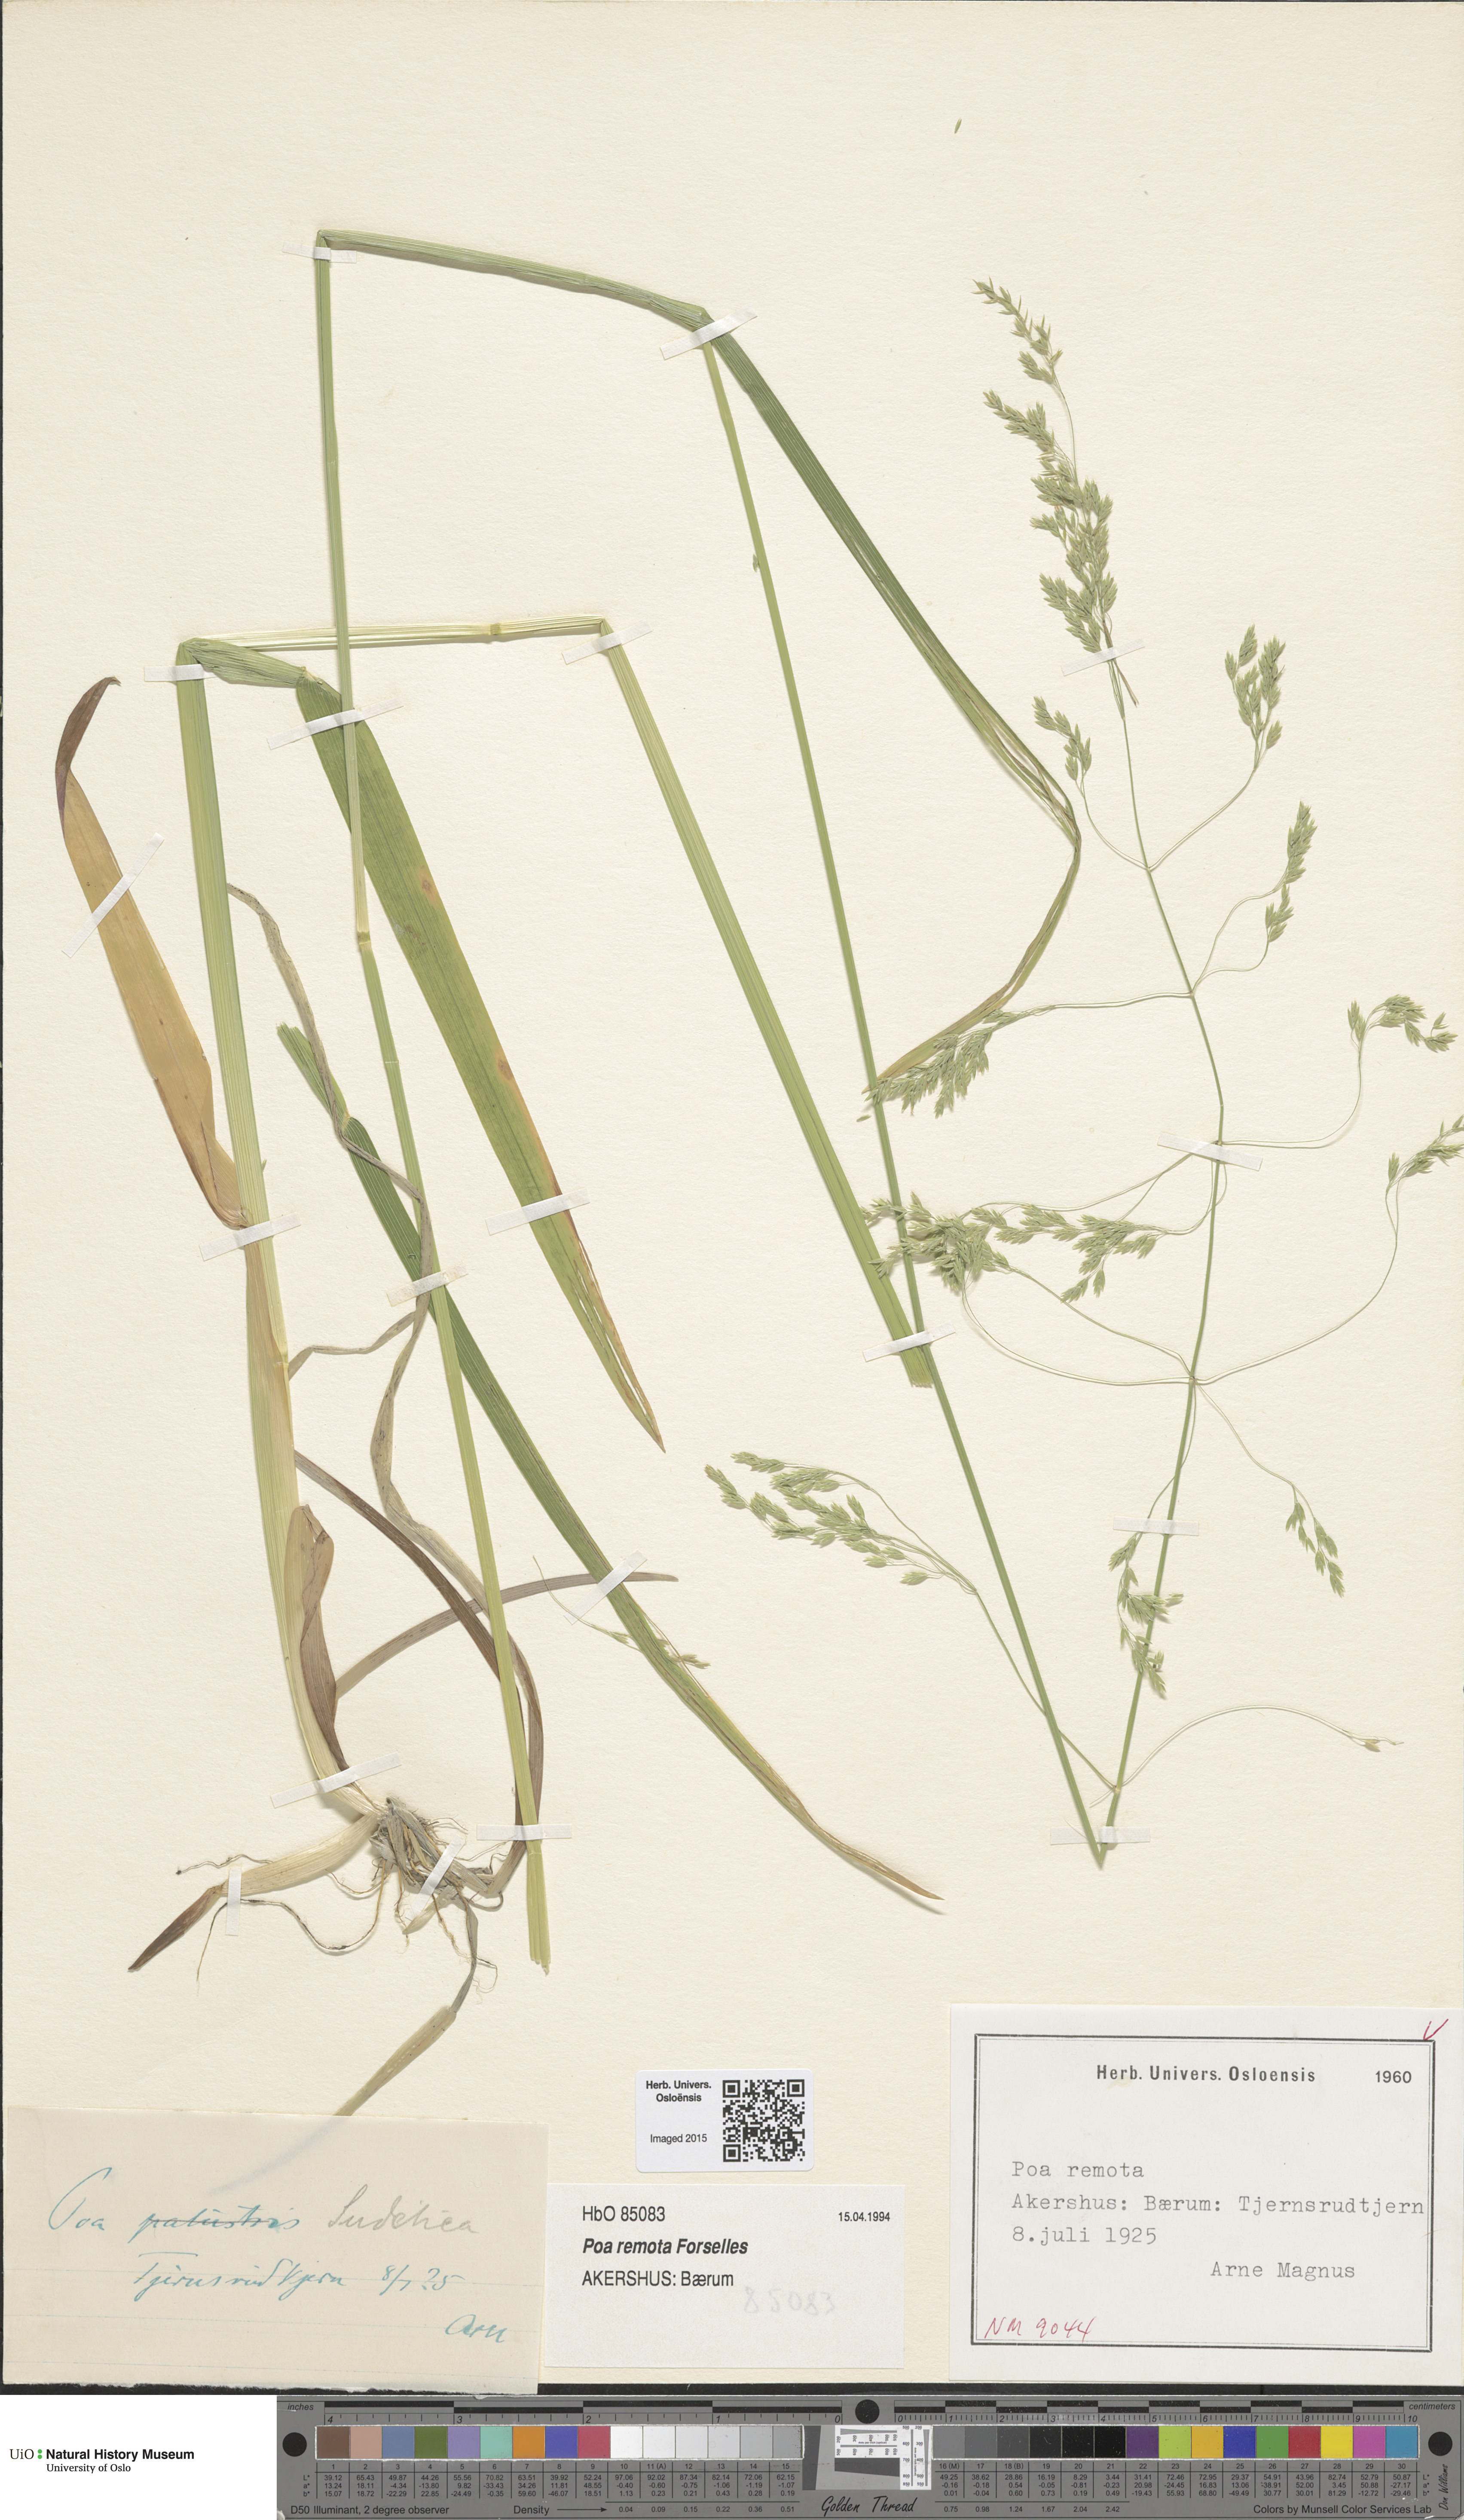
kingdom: Plantae
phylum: Tracheophyta
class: Liliopsida
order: Poales
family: Poaceae
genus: Poa
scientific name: Poa remota
